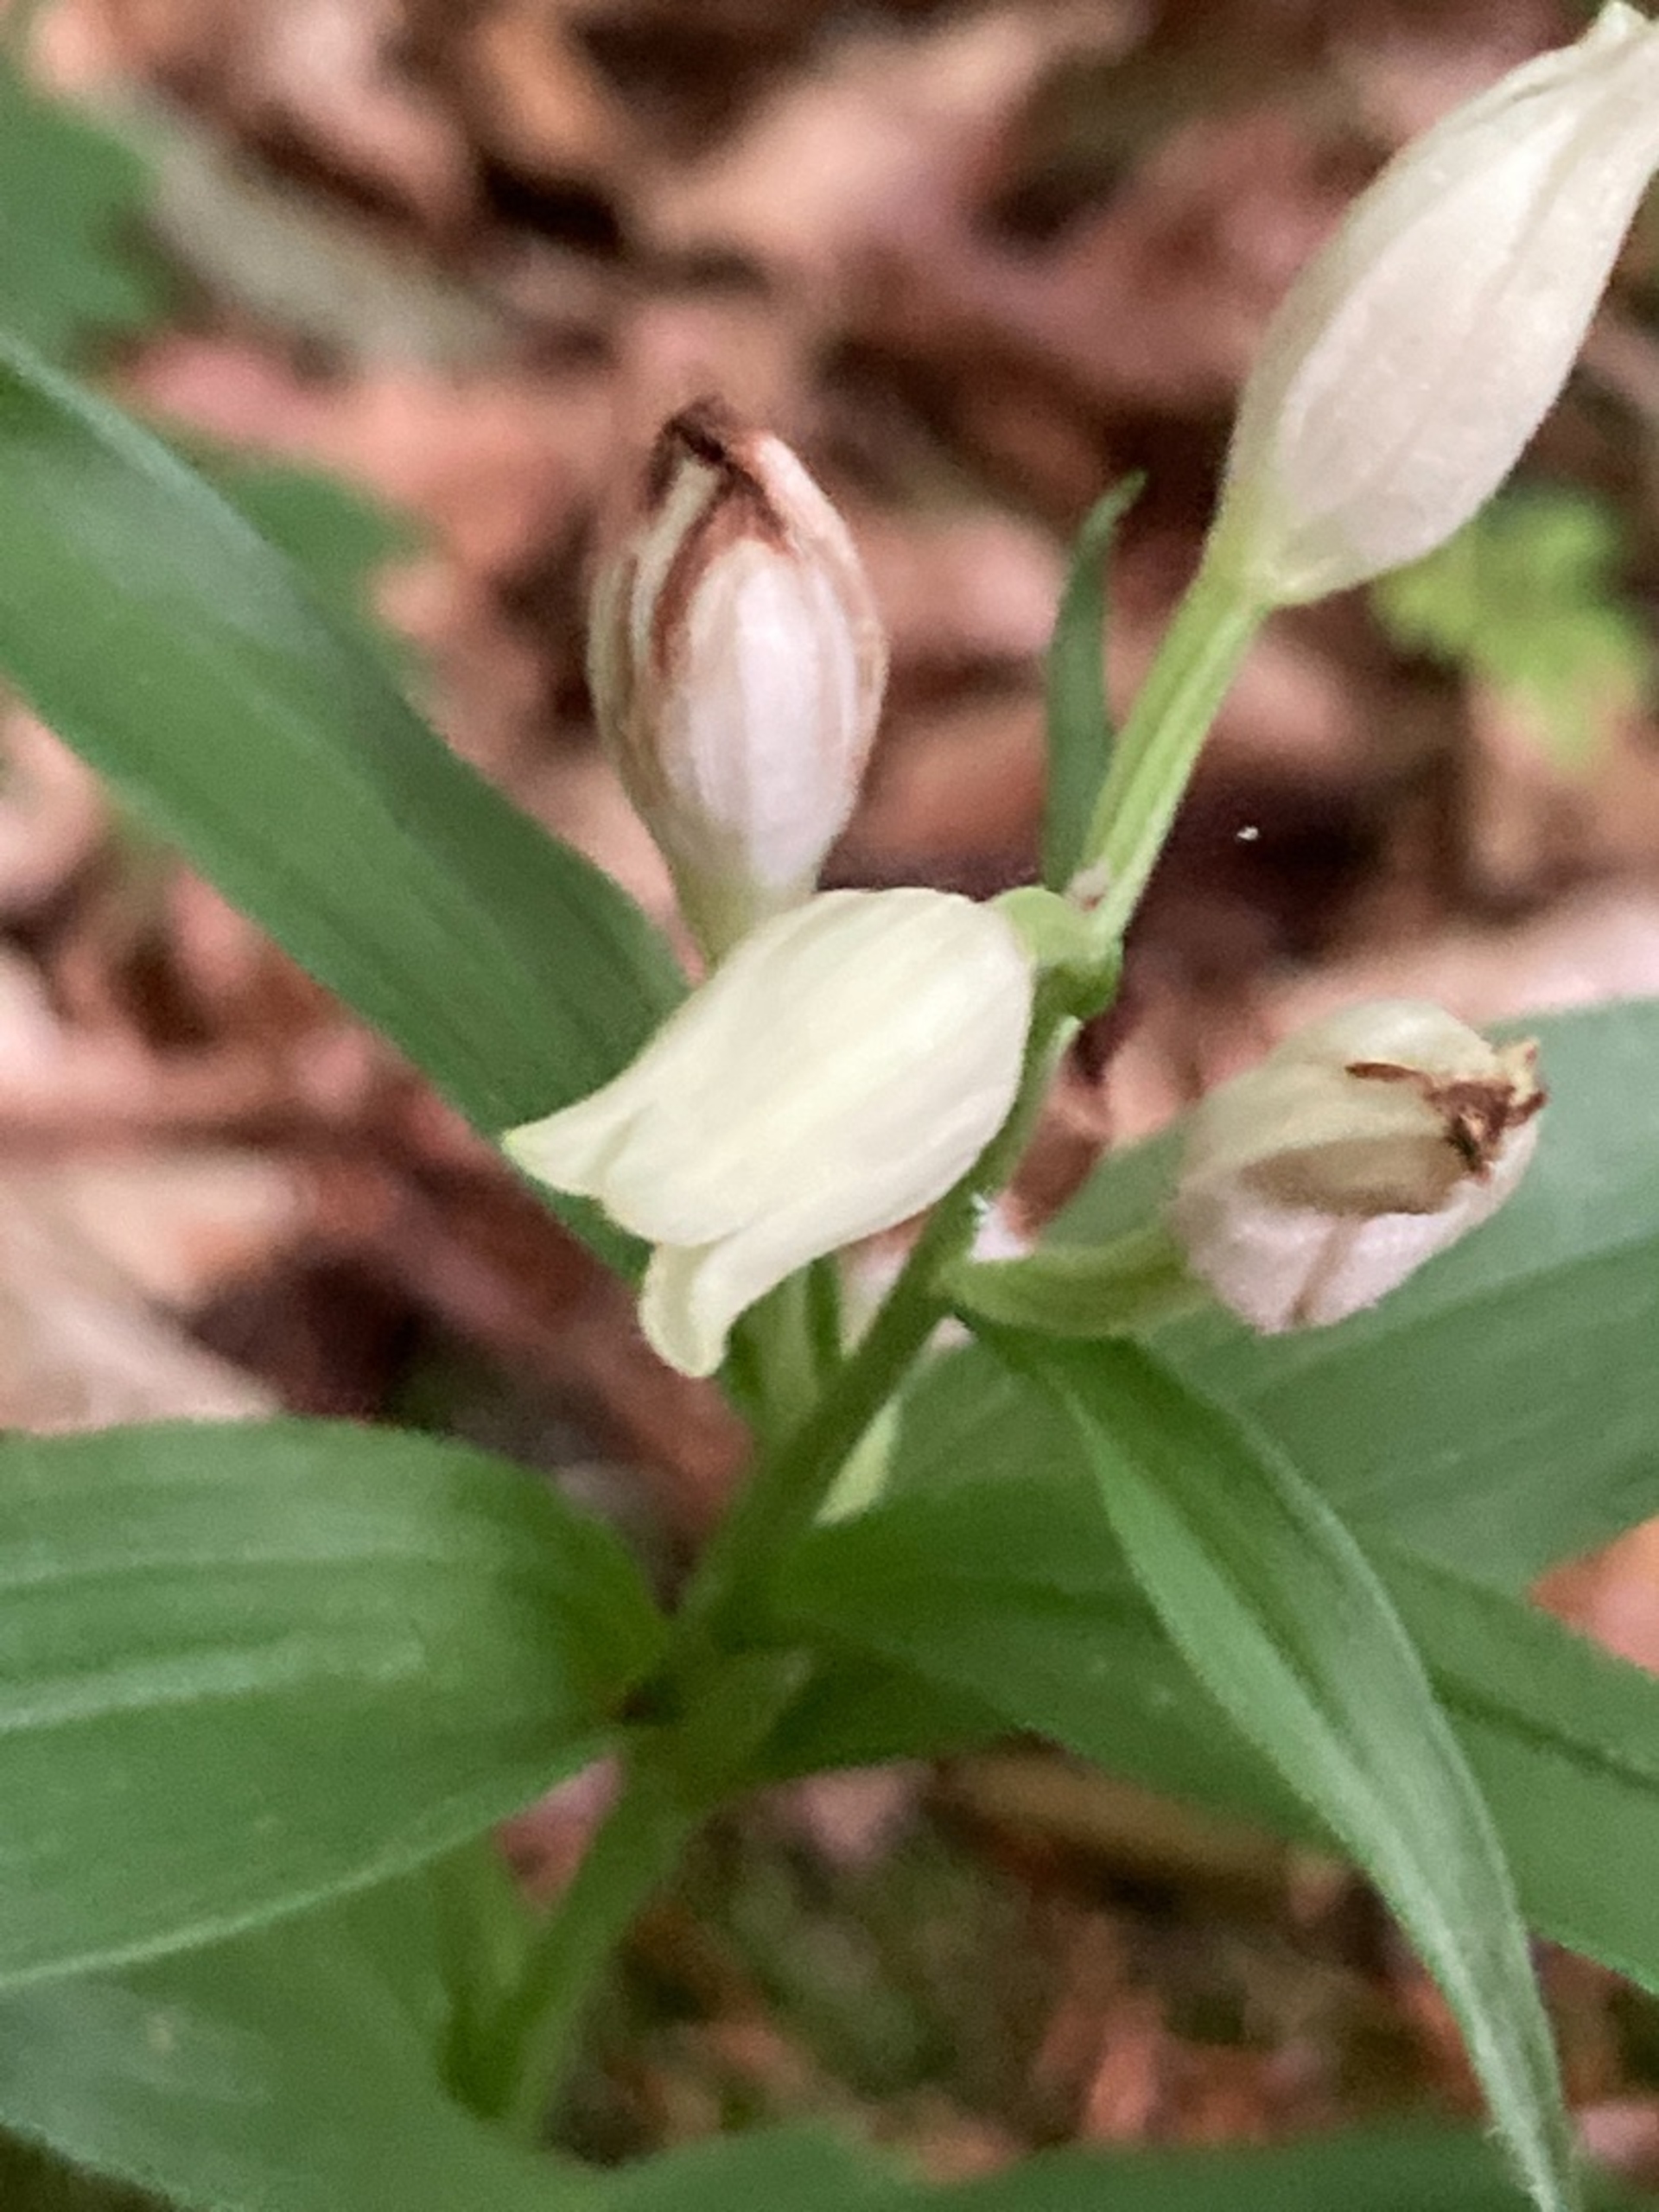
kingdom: Plantae
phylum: Tracheophyta
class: Liliopsida
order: Asparagales
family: Orchidaceae
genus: Cephalanthera
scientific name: Cephalanthera damasonium
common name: Hvidgul skovlilje
